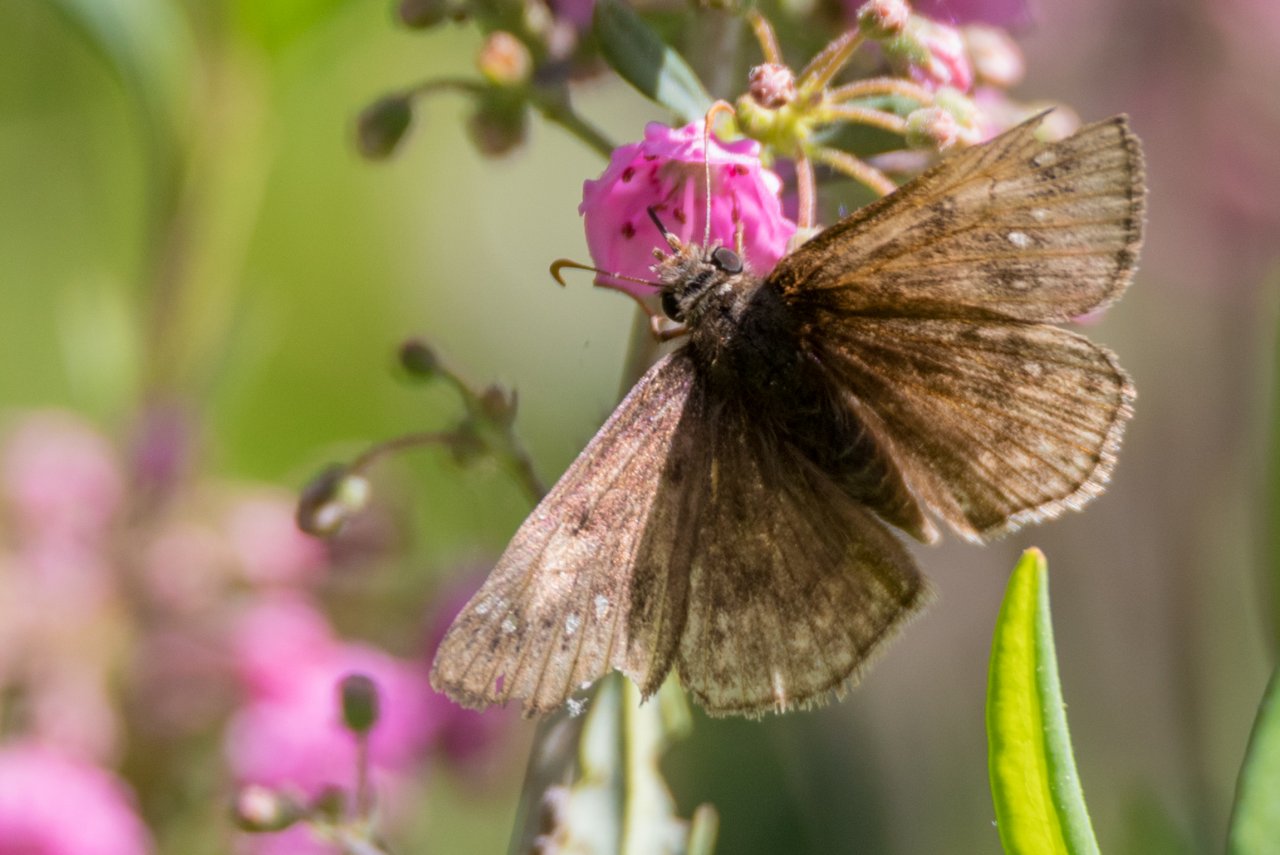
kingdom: Animalia
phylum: Arthropoda
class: Insecta
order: Lepidoptera
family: Hesperiidae
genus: Gesta
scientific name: Gesta
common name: Juvenal's Duskywing
